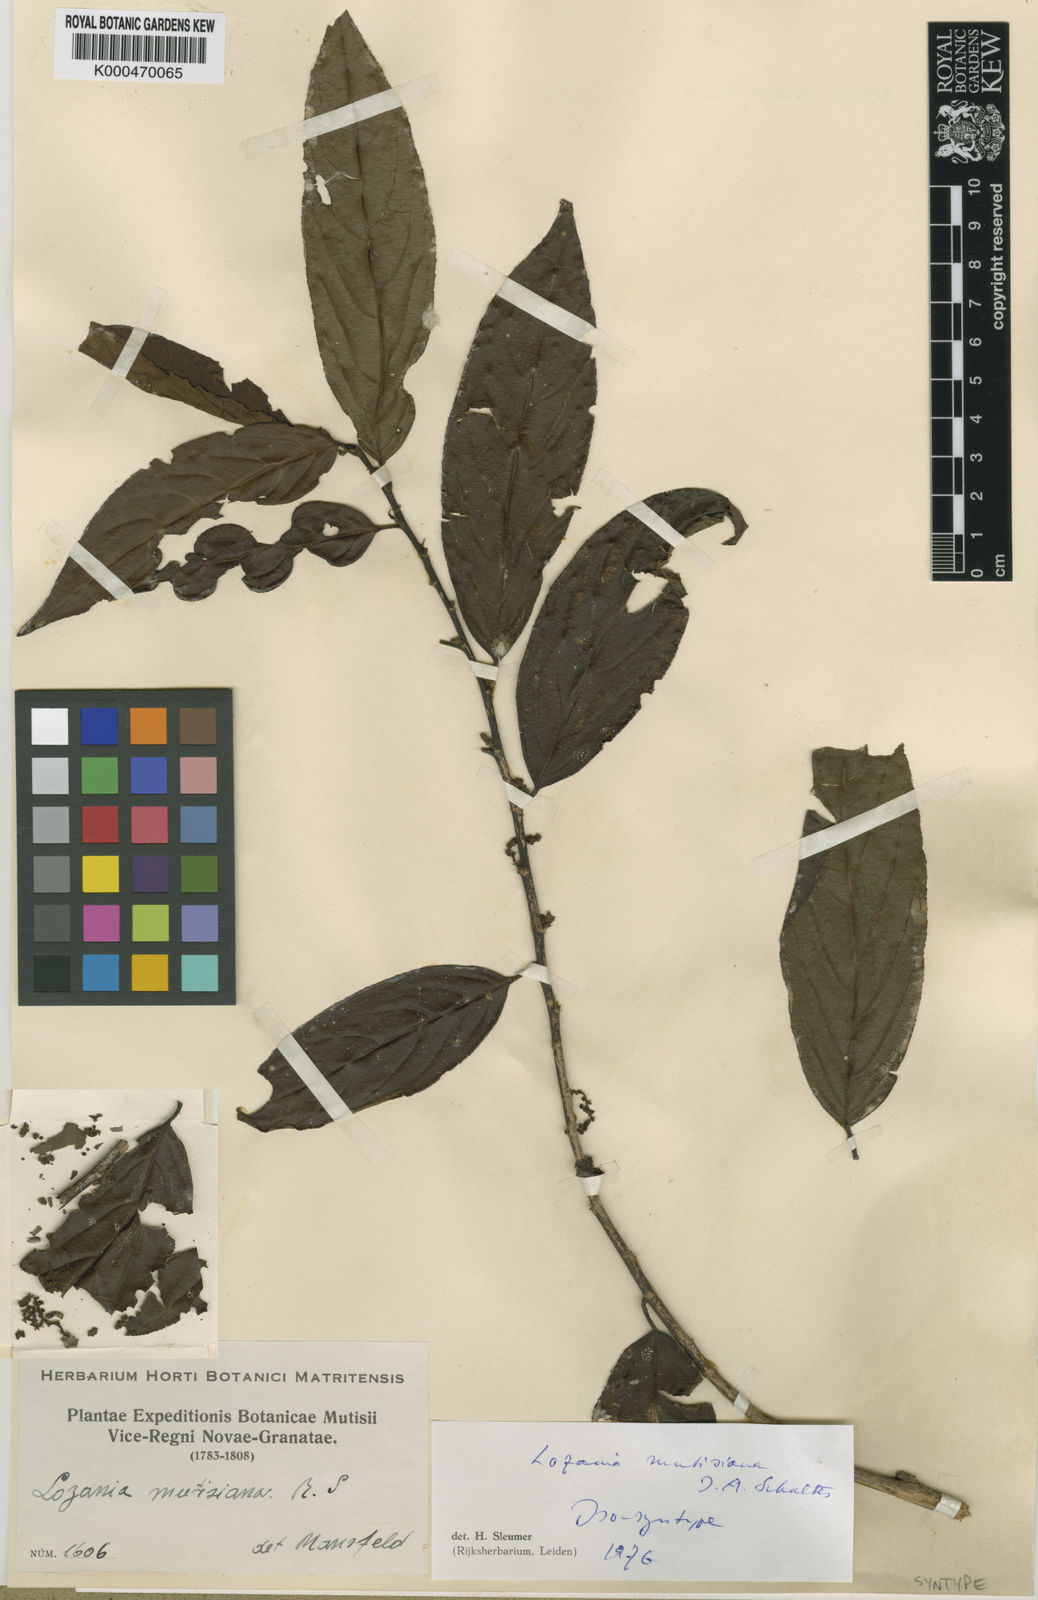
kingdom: Plantae
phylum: Tracheophyta
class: Magnoliopsida
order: Malpighiales
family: Lacistemataceae
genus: Lozania
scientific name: Lozania mutisiana
